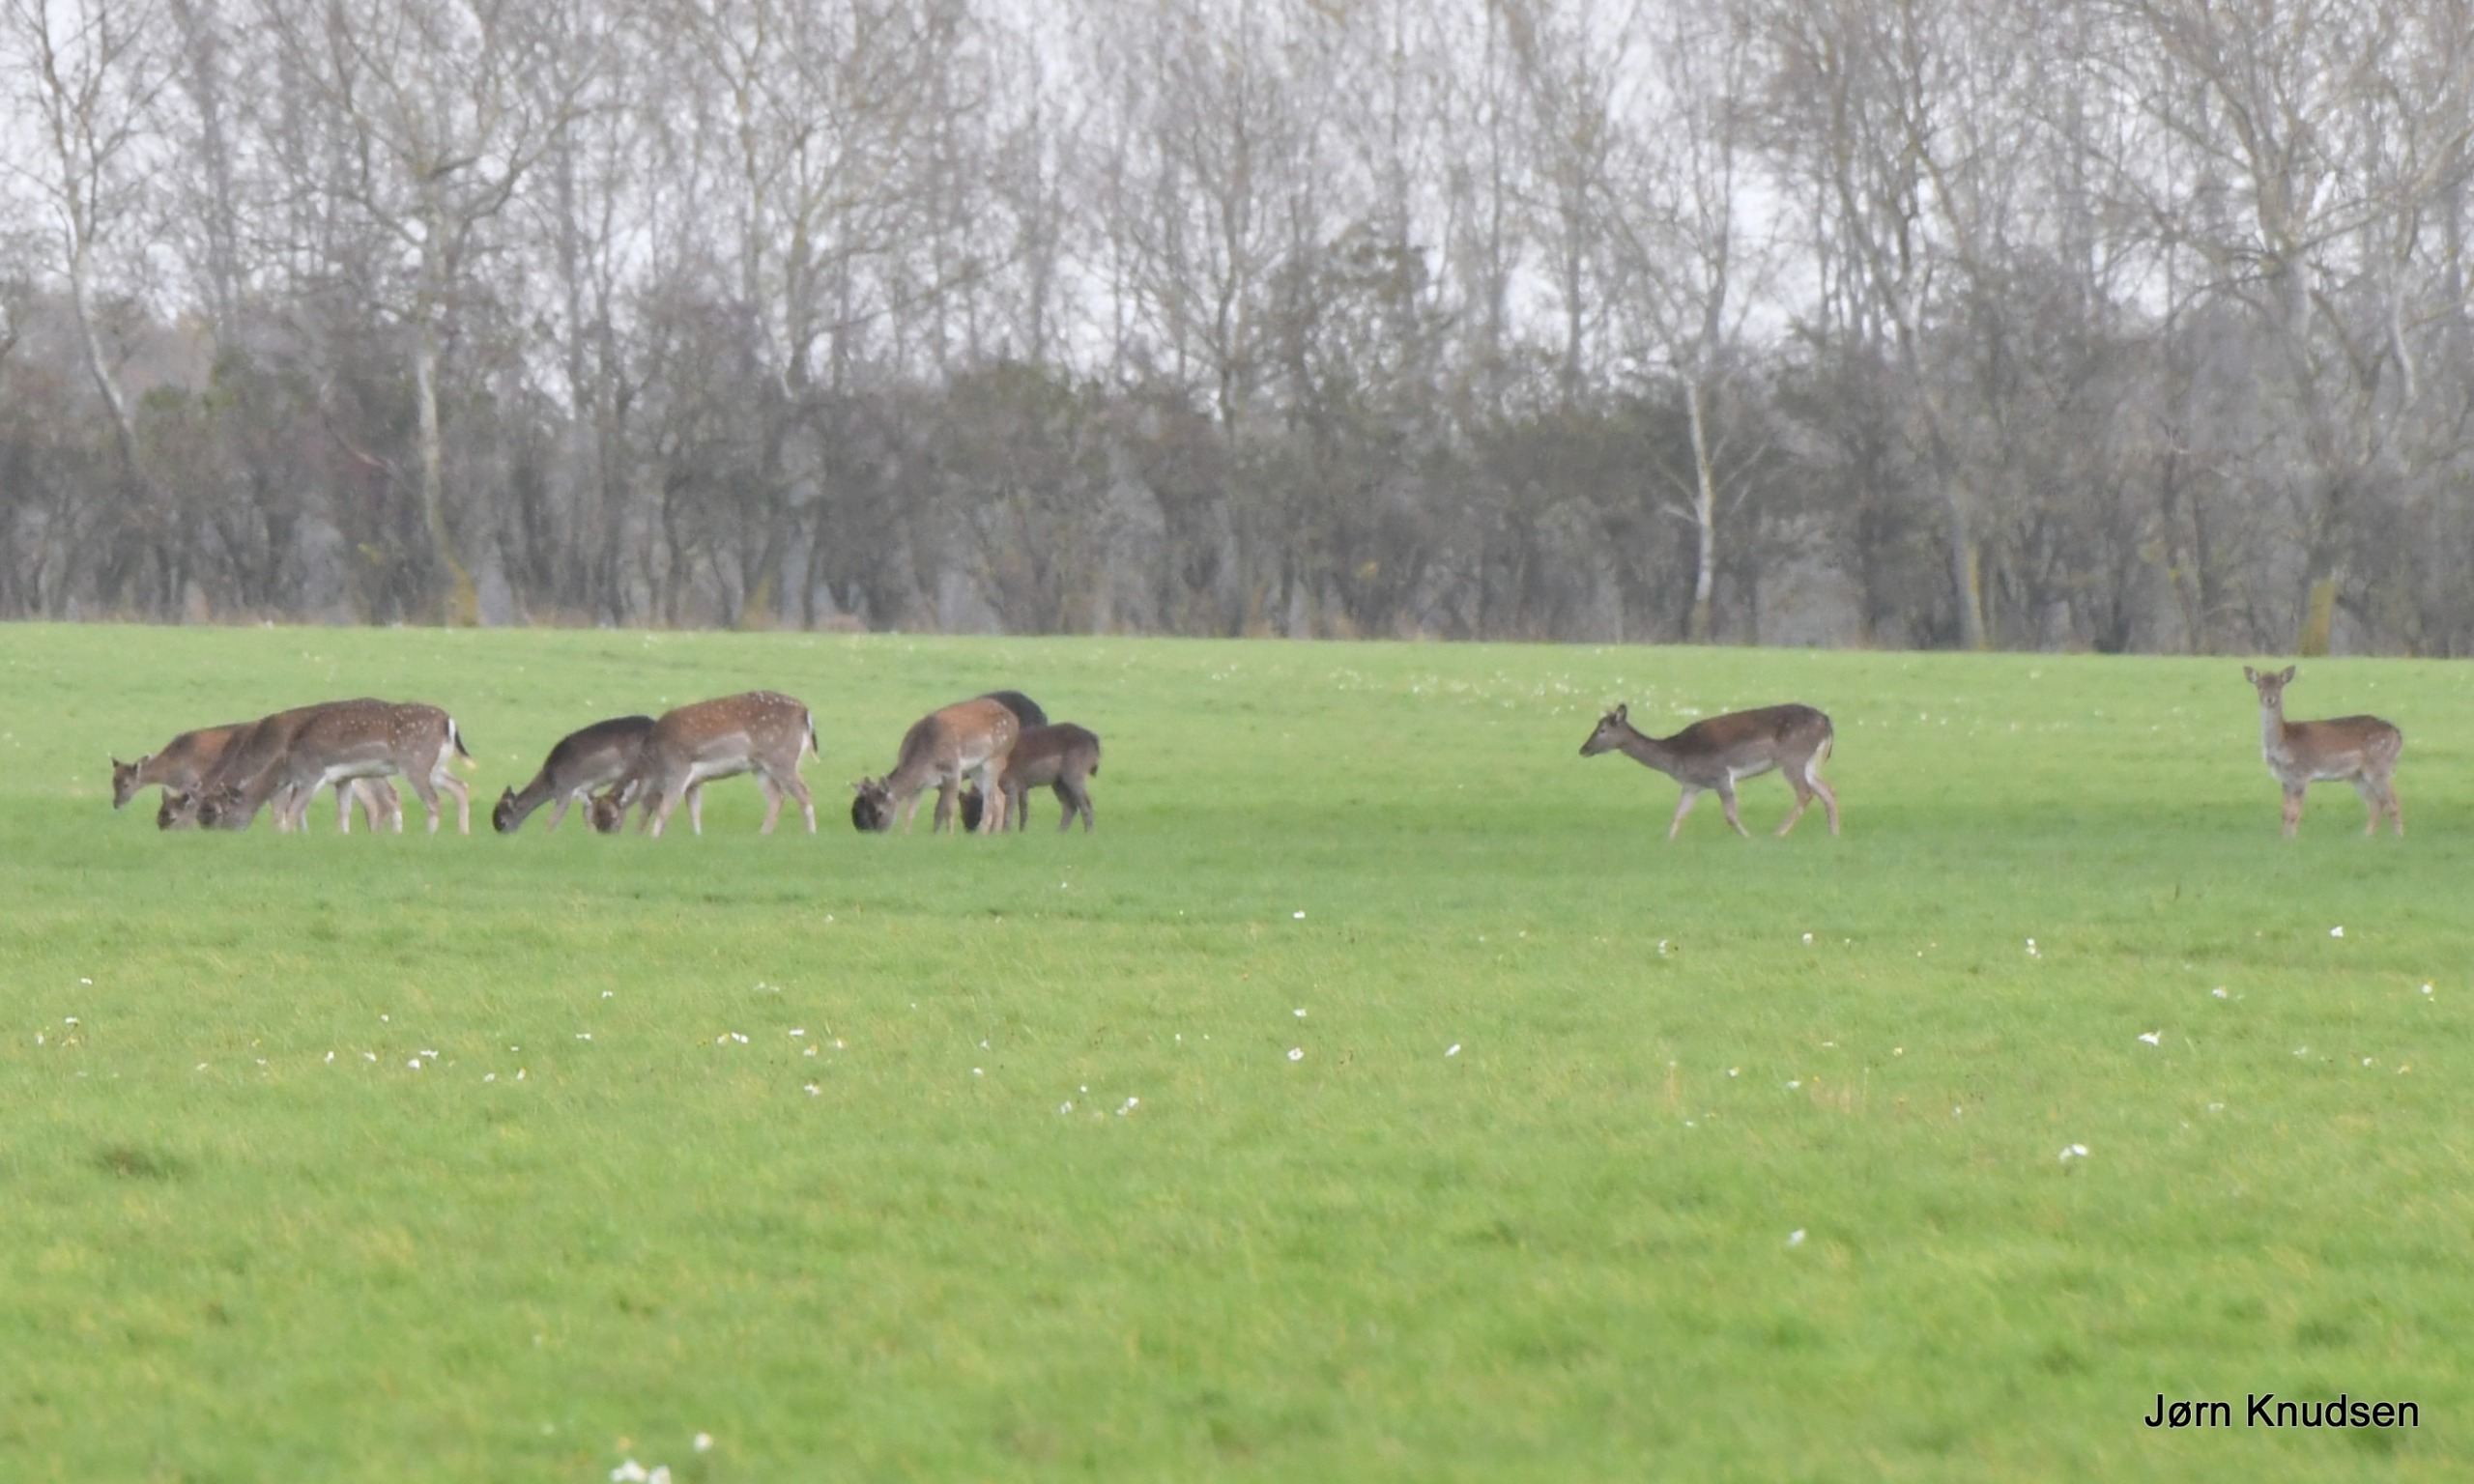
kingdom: Animalia
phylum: Chordata
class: Mammalia
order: Artiodactyla
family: Cervidae
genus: Dama
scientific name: Dama dama
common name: Dådyr
